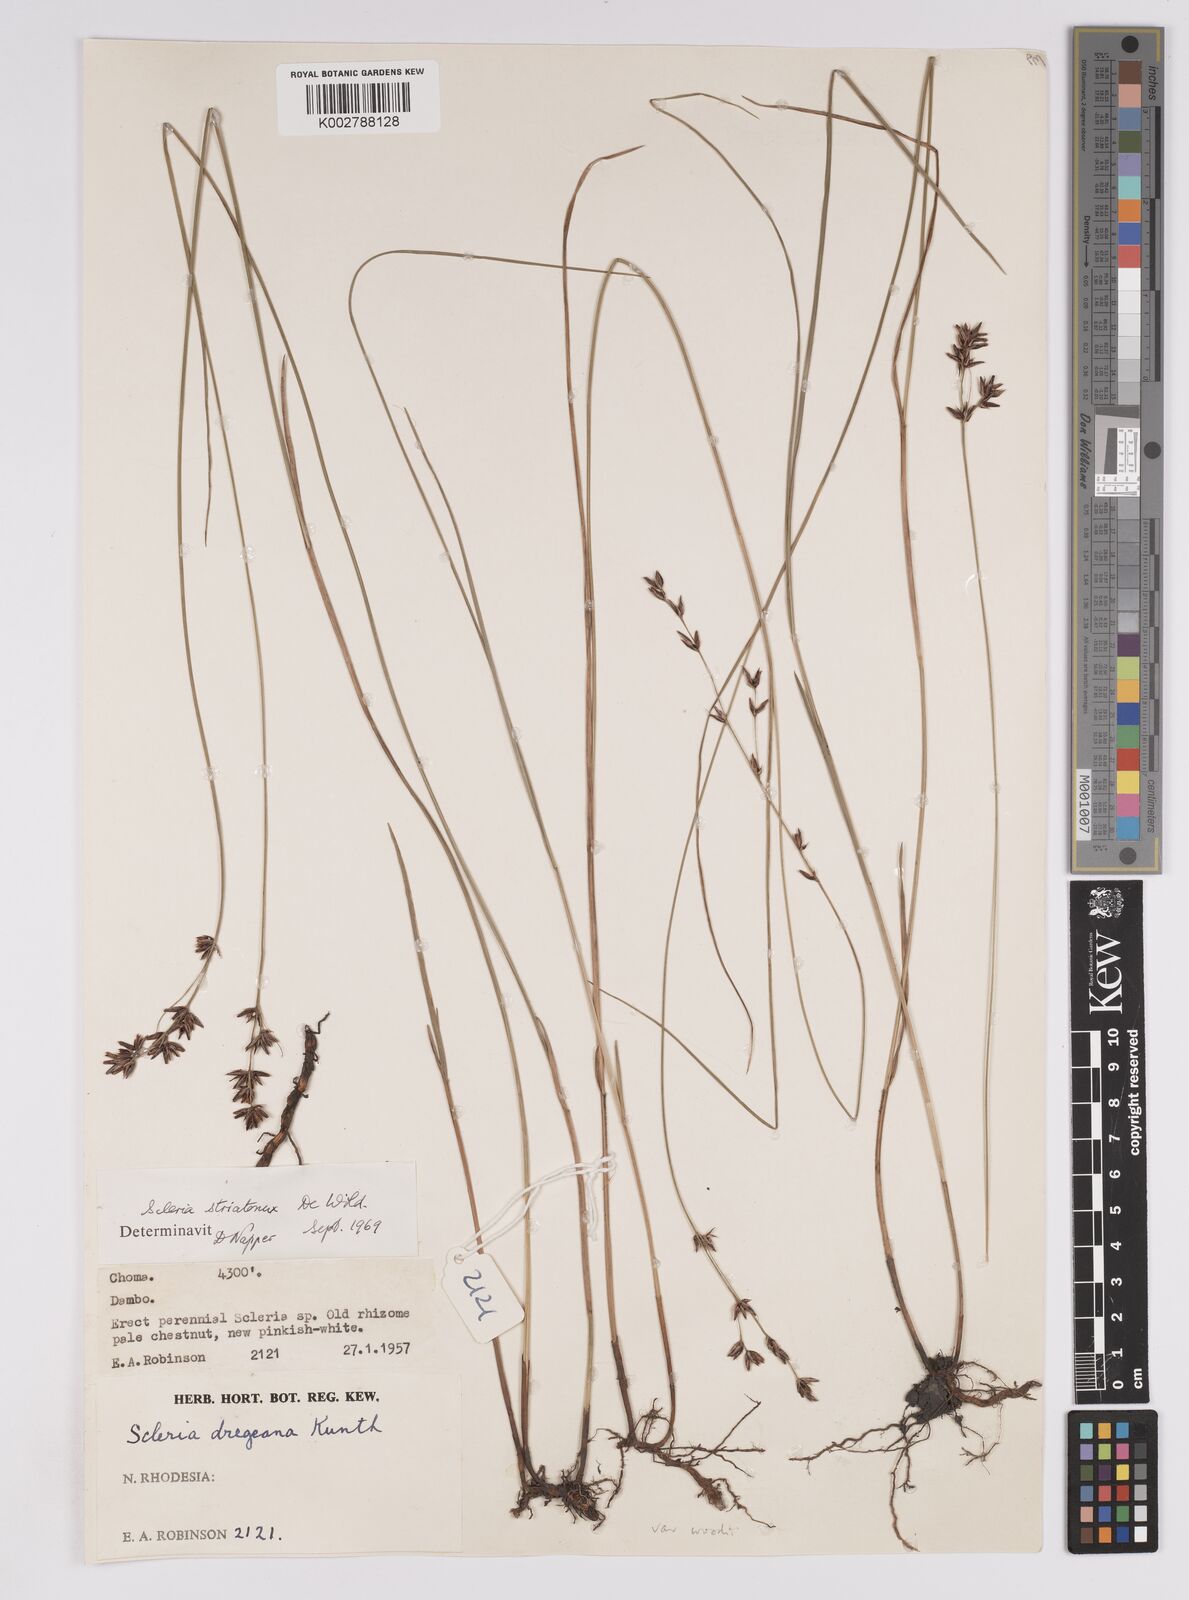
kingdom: Plantae
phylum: Tracheophyta
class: Liliopsida
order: Poales
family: Cyperaceae
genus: Scleria
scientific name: Scleria woodii
